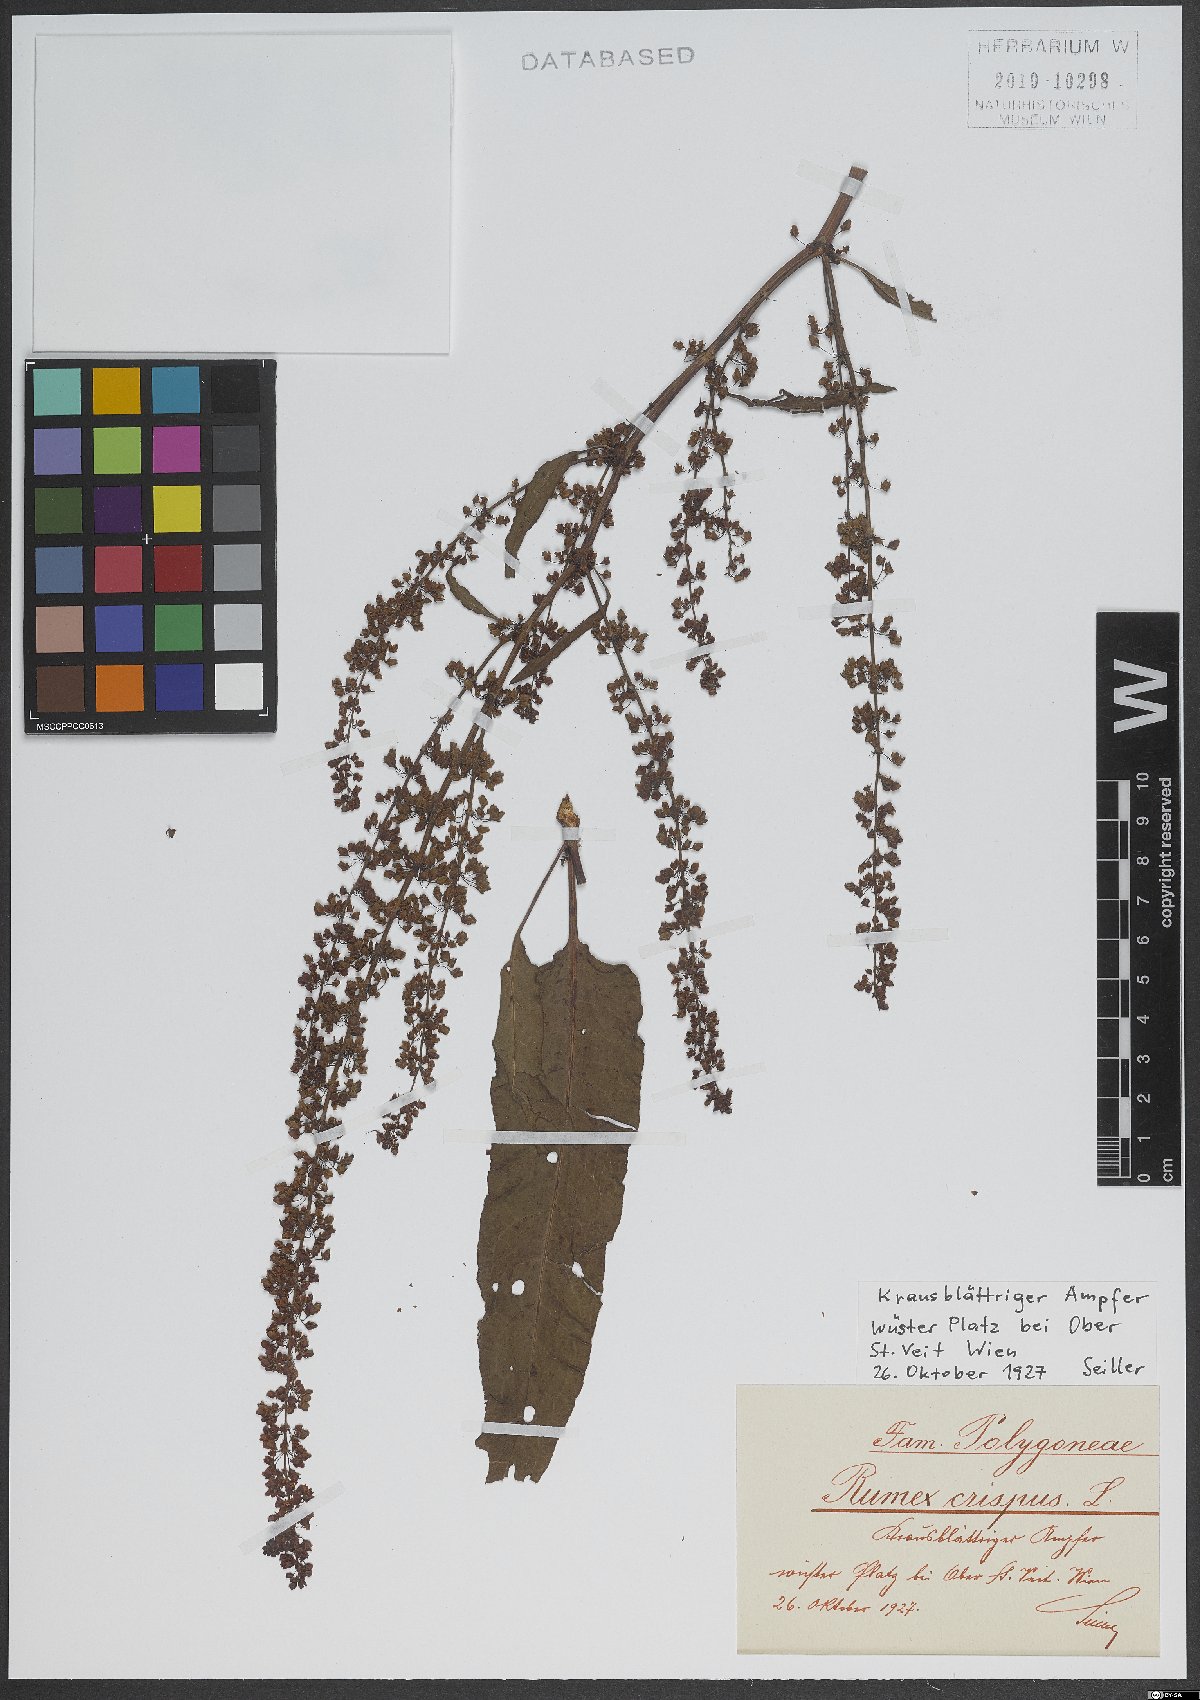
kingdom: Plantae
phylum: Tracheophyta
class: Magnoliopsida
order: Caryophyllales
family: Polygonaceae
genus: Rumex
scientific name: Rumex crispus
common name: Curled dock
